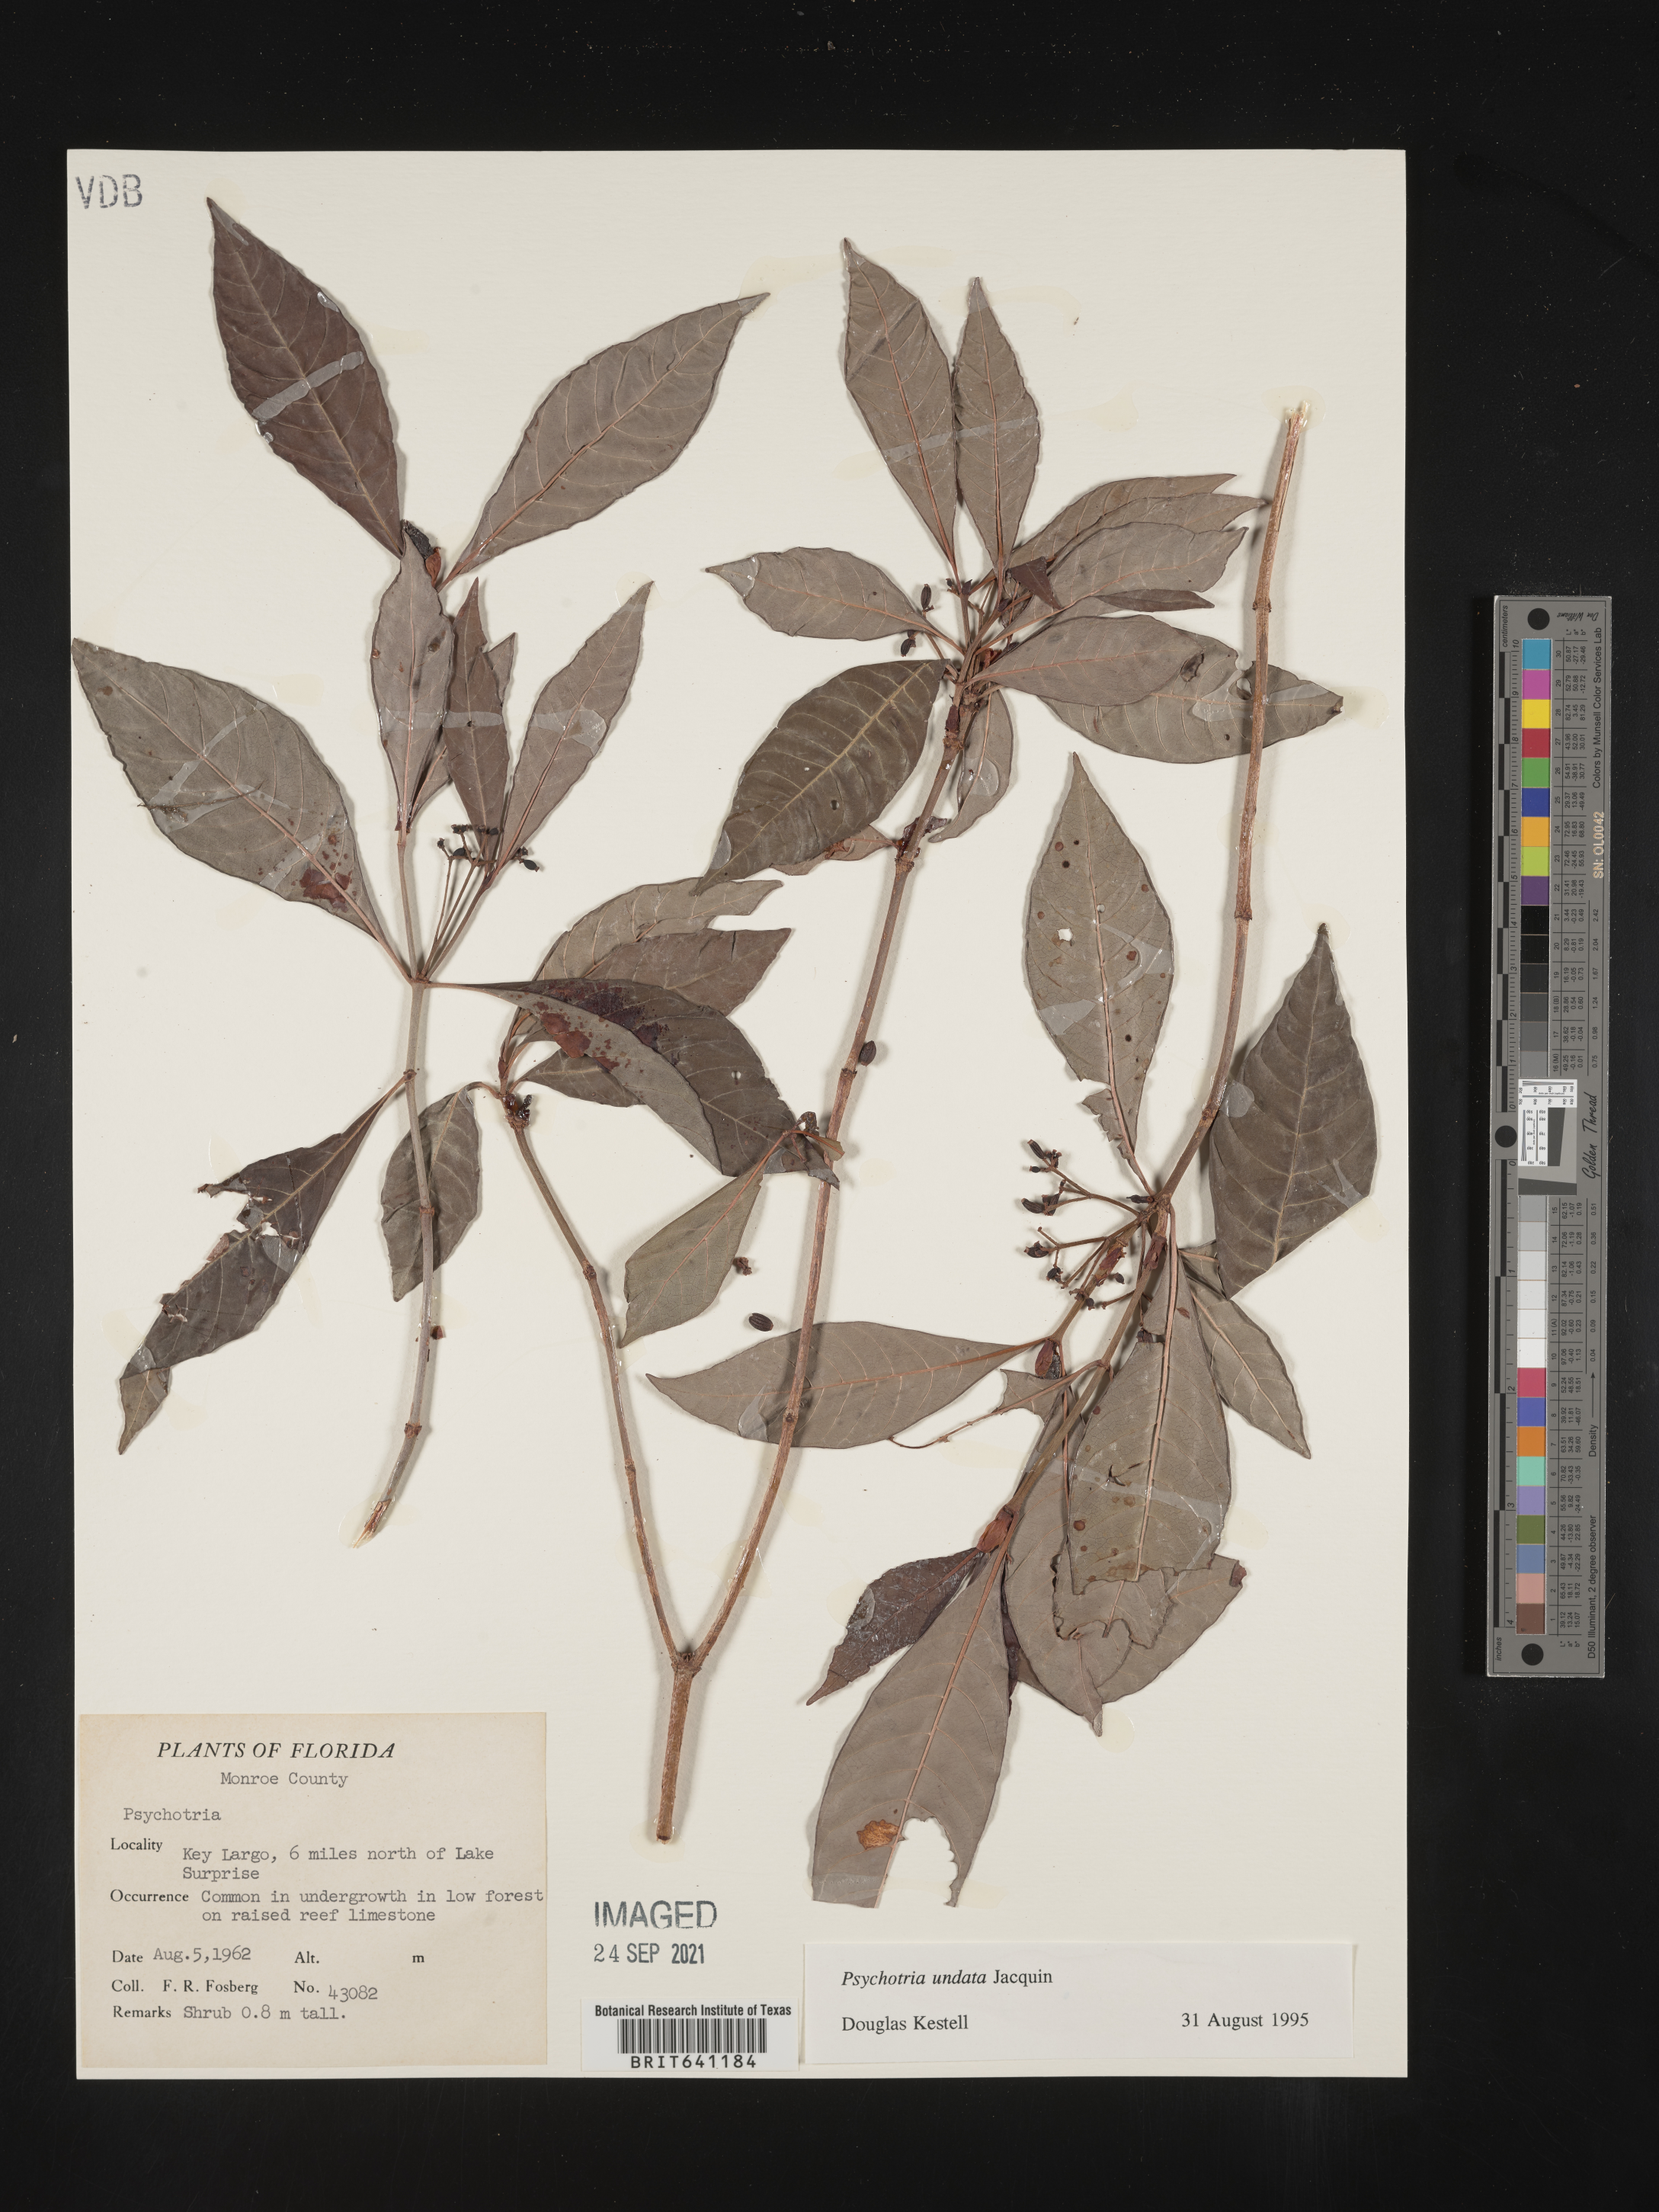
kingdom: Plantae
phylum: Tracheophyta
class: Magnoliopsida
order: Gentianales
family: Rubiaceae
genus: Psychotria
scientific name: Psychotria nervosa
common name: Bastard cankerberry
